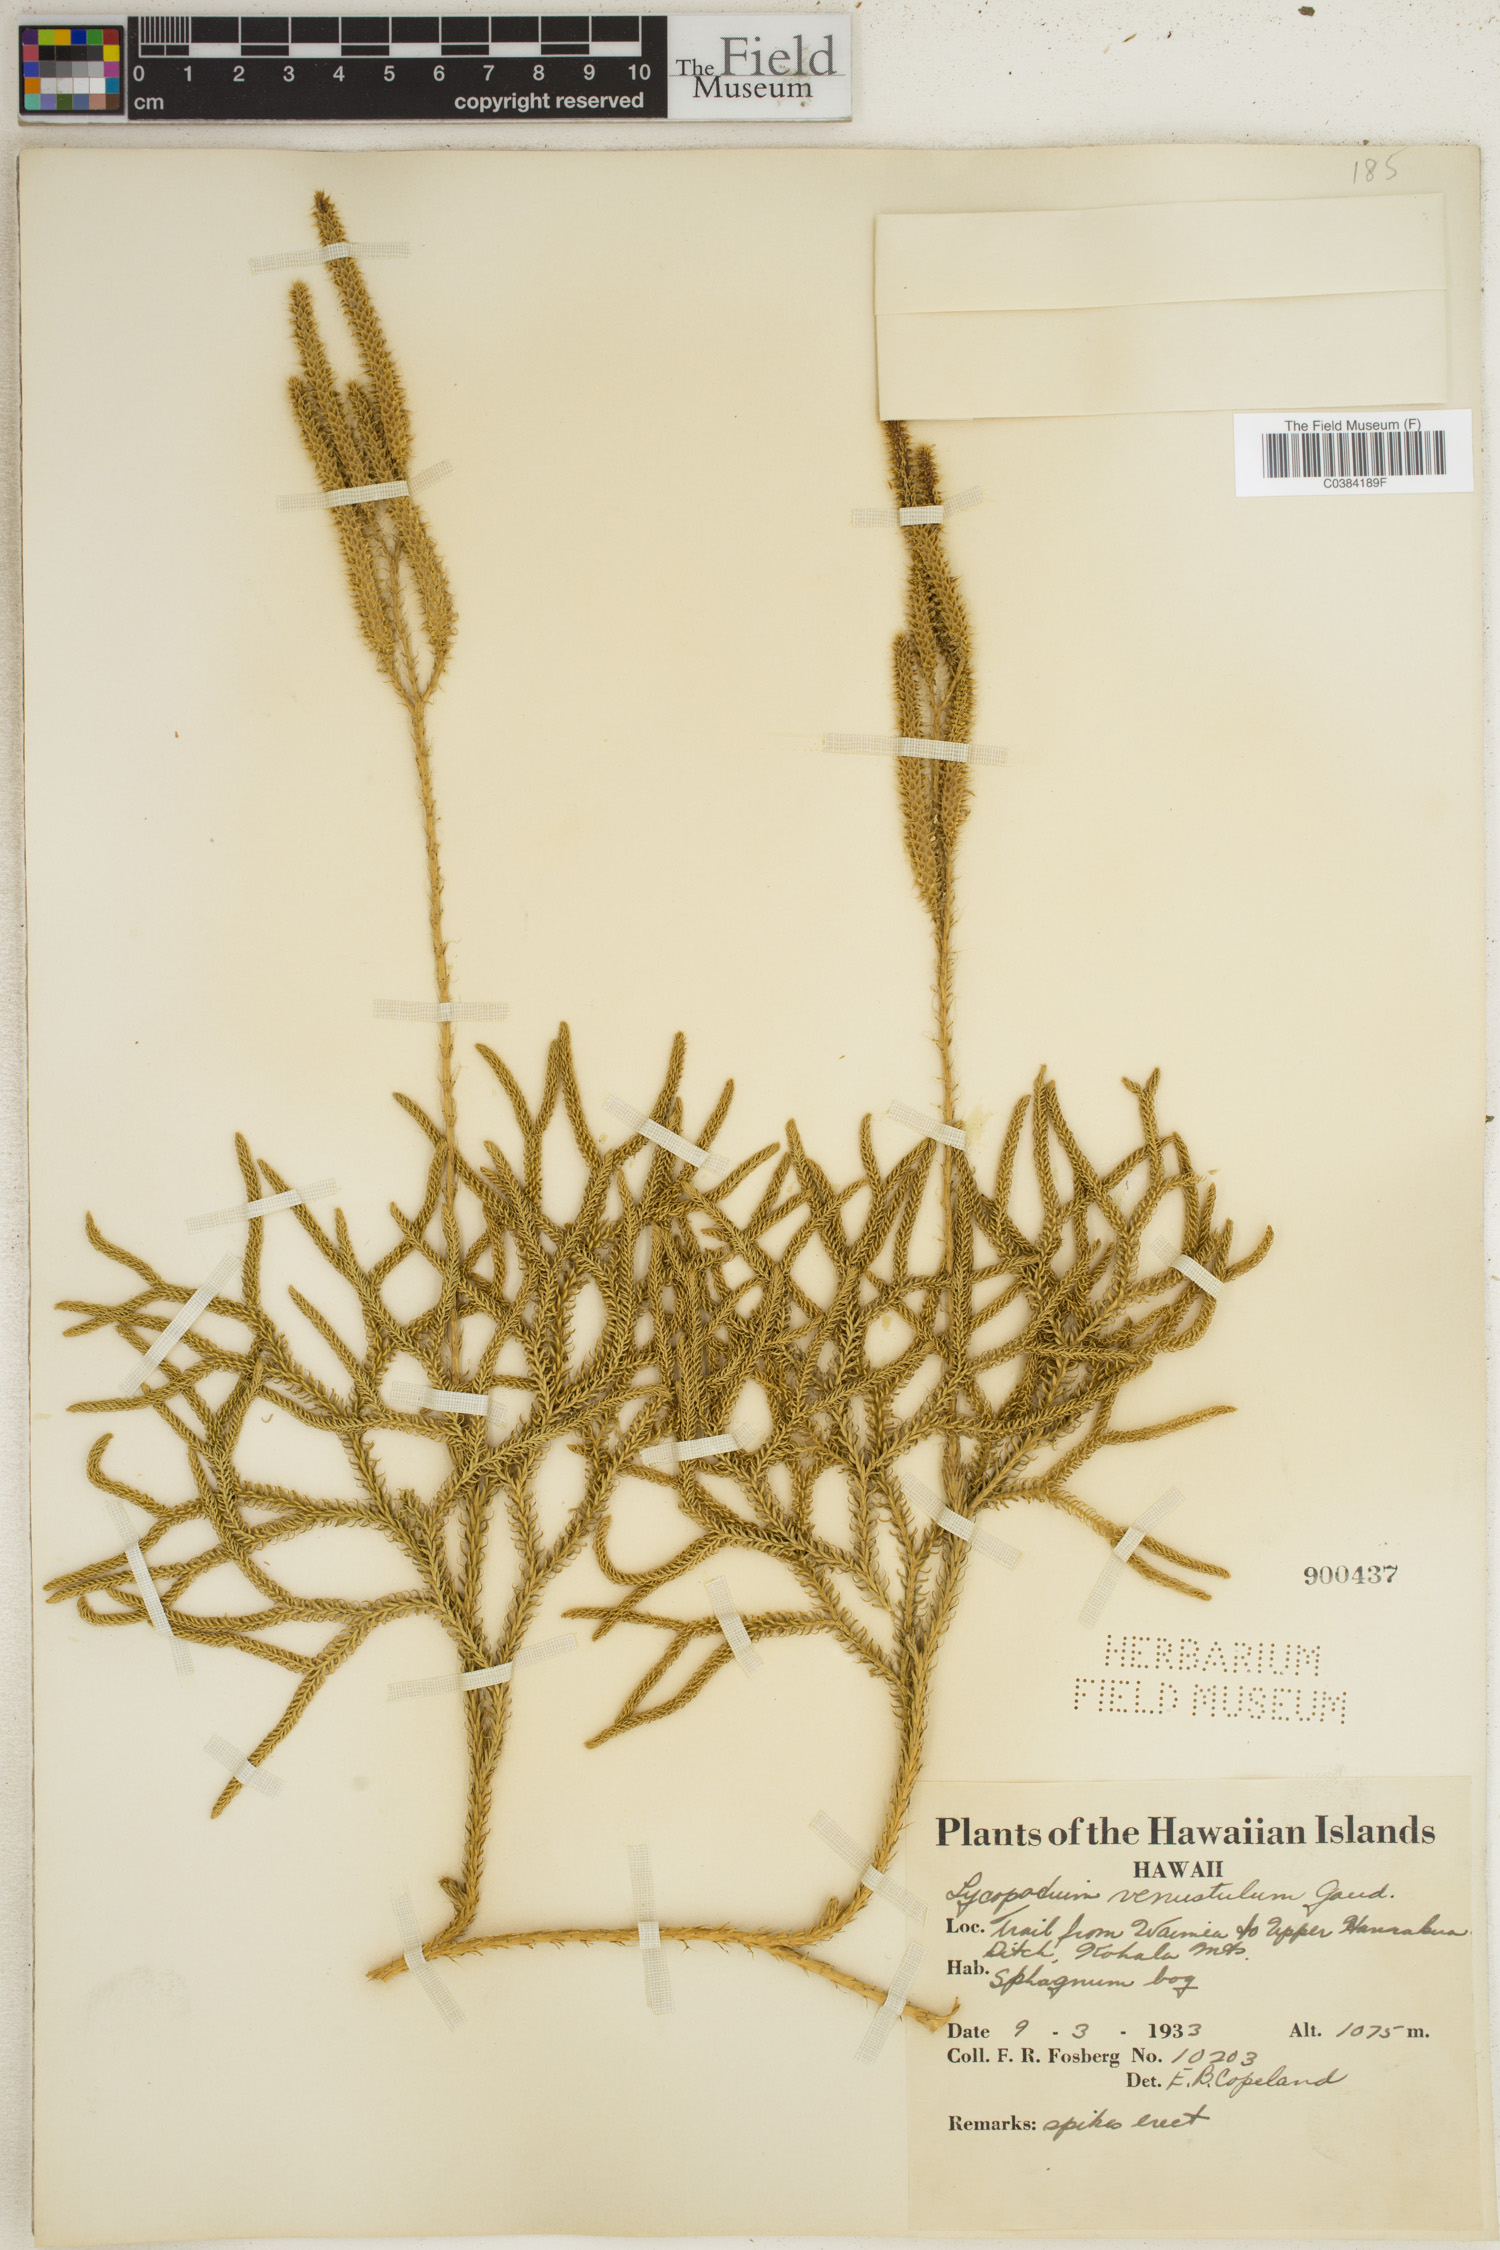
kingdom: Plantae
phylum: Tracheophyta
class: Lycopodiopsida
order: Lycopodiales
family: Lycopodiaceae
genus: Lycopodium
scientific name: Lycopodium venustulum
